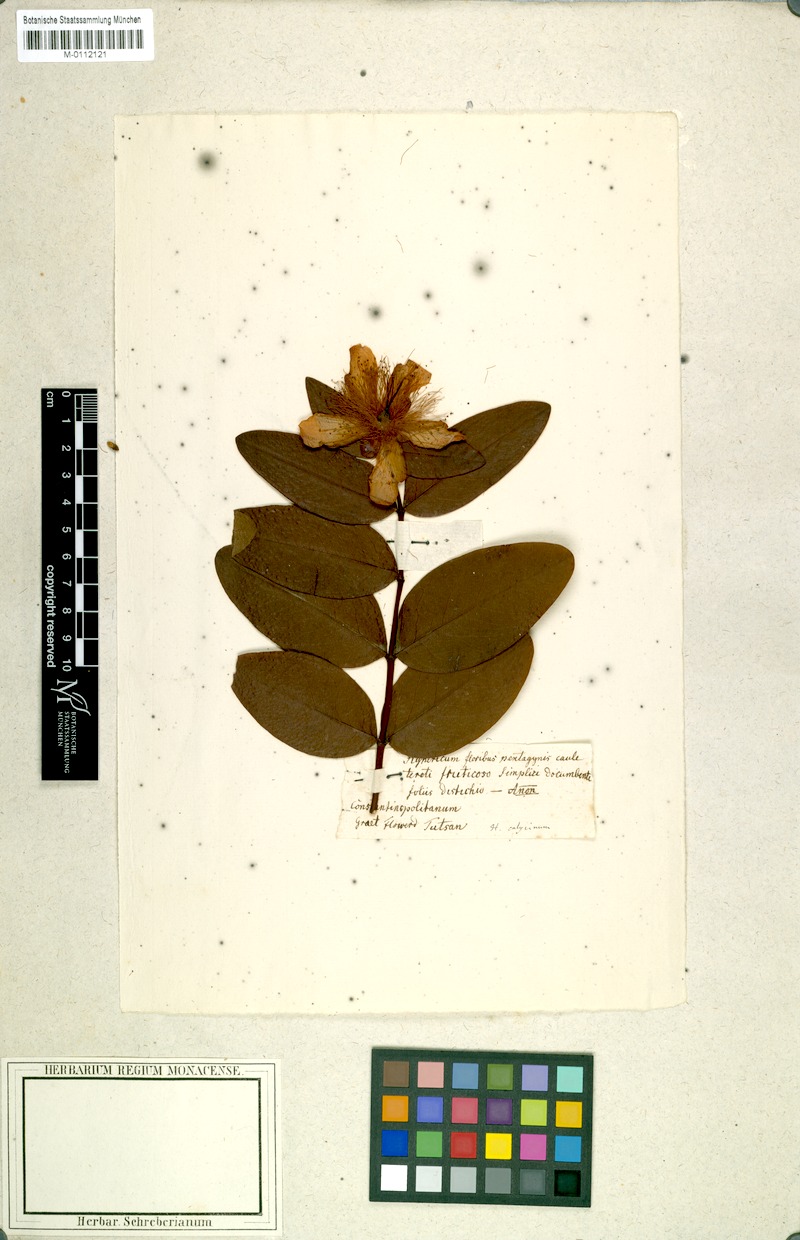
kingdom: Plantae
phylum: Tracheophyta
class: Magnoliopsida
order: Malpighiales
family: Hypericaceae
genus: Hypericum
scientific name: Hypericum calycinum
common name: Rose-of-sharon
